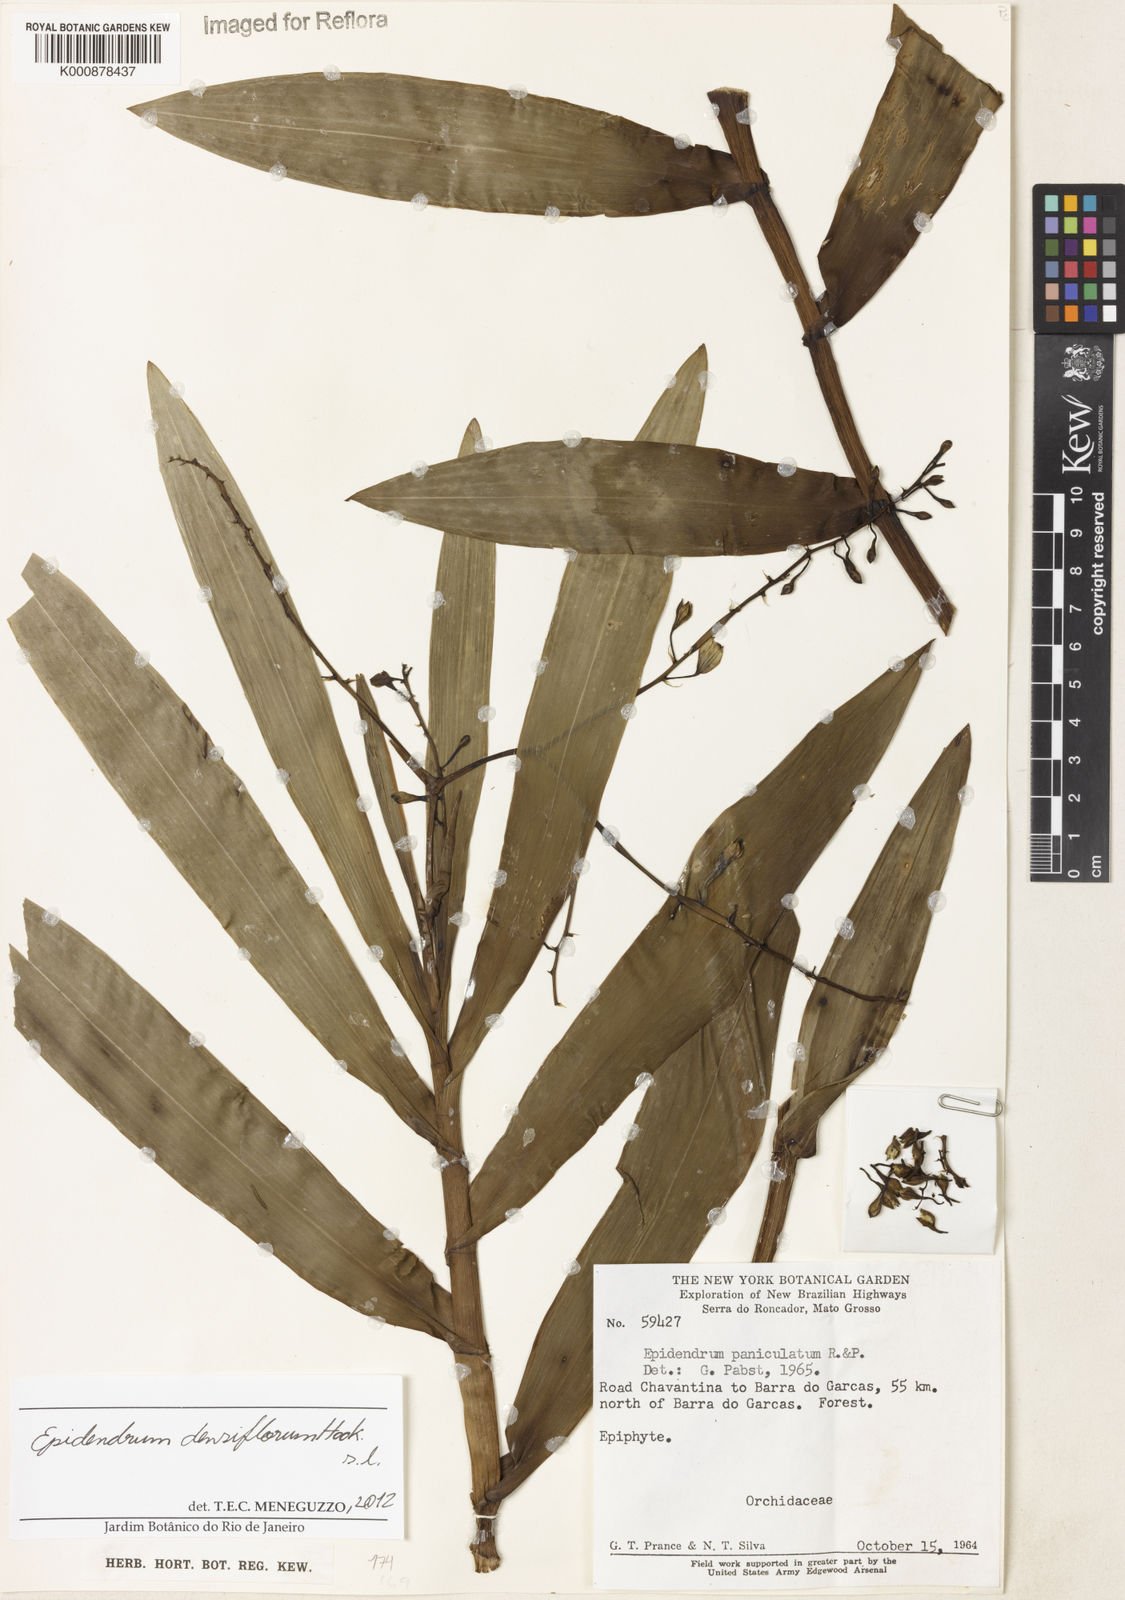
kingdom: Plantae
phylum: Tracheophyta
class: Liliopsida
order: Asparagales
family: Orchidaceae
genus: Epidendrum
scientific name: Epidendrum densiflorum
